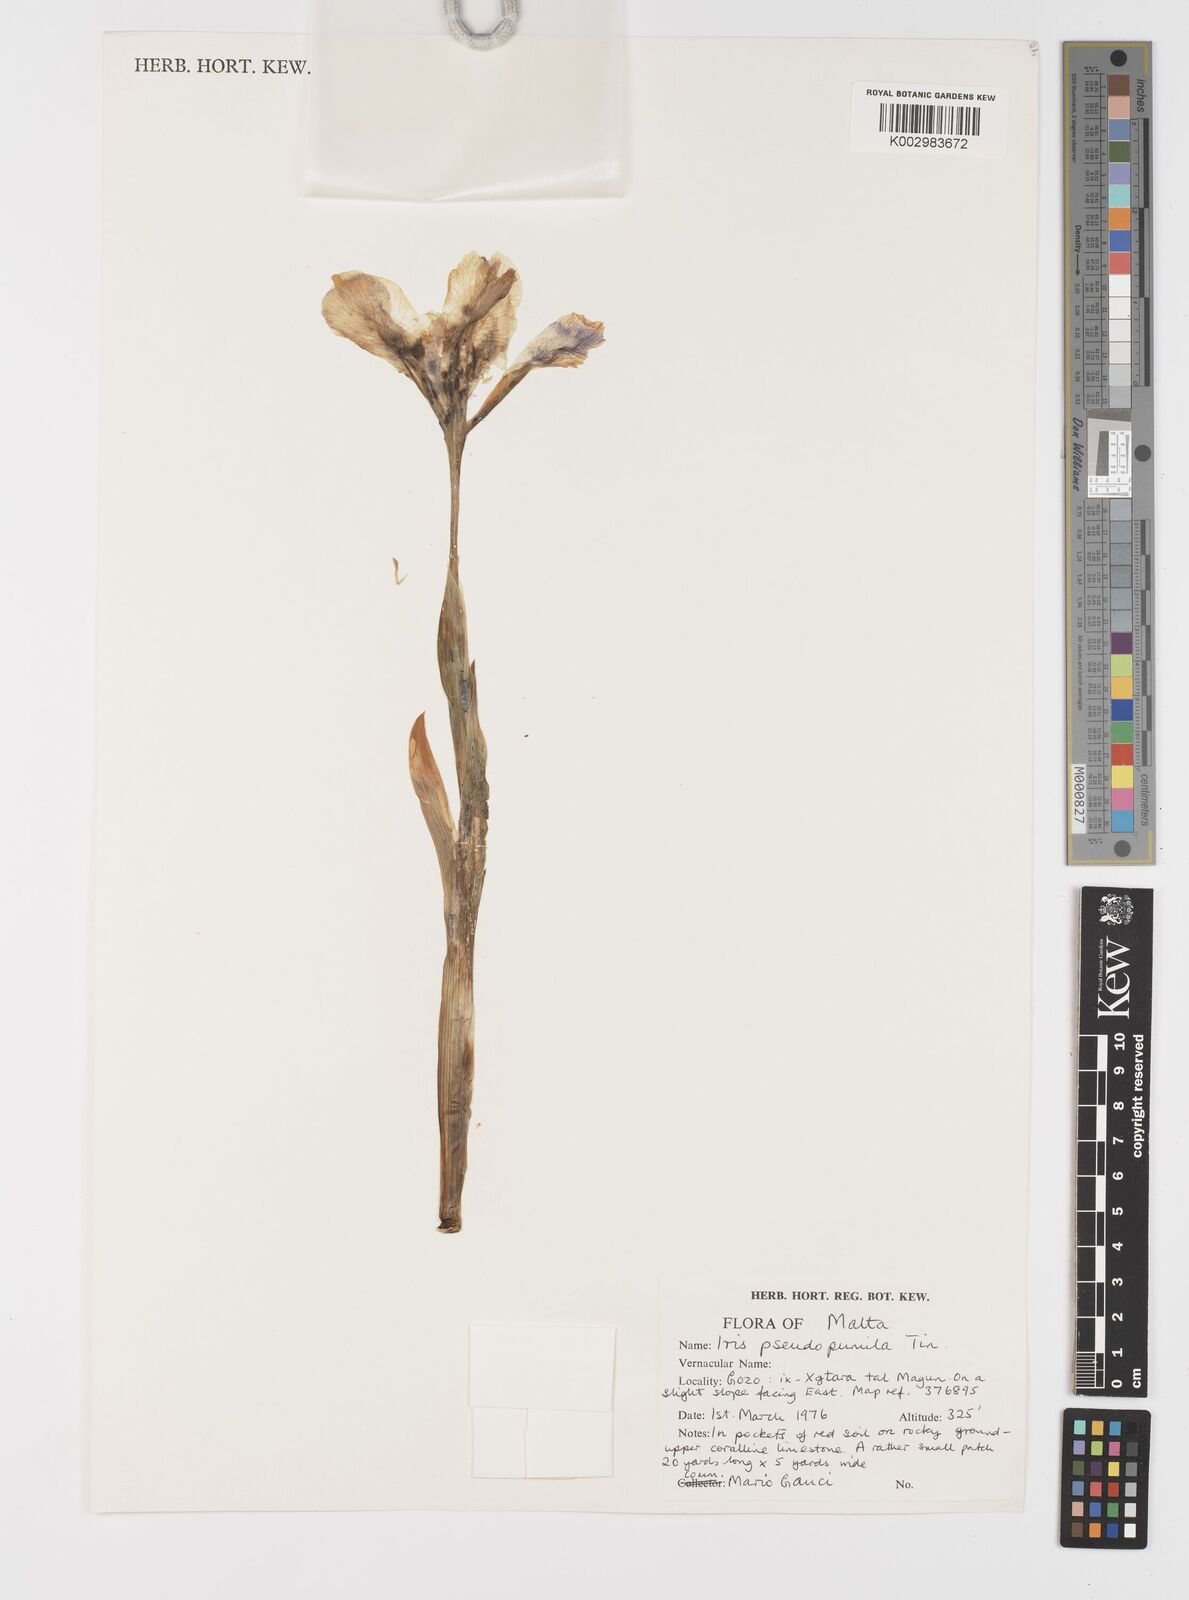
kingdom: Plantae
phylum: Tracheophyta
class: Liliopsida
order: Asparagales
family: Iridaceae
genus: Iris
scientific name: Iris pseudopumila
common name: Southern dwarf iris
